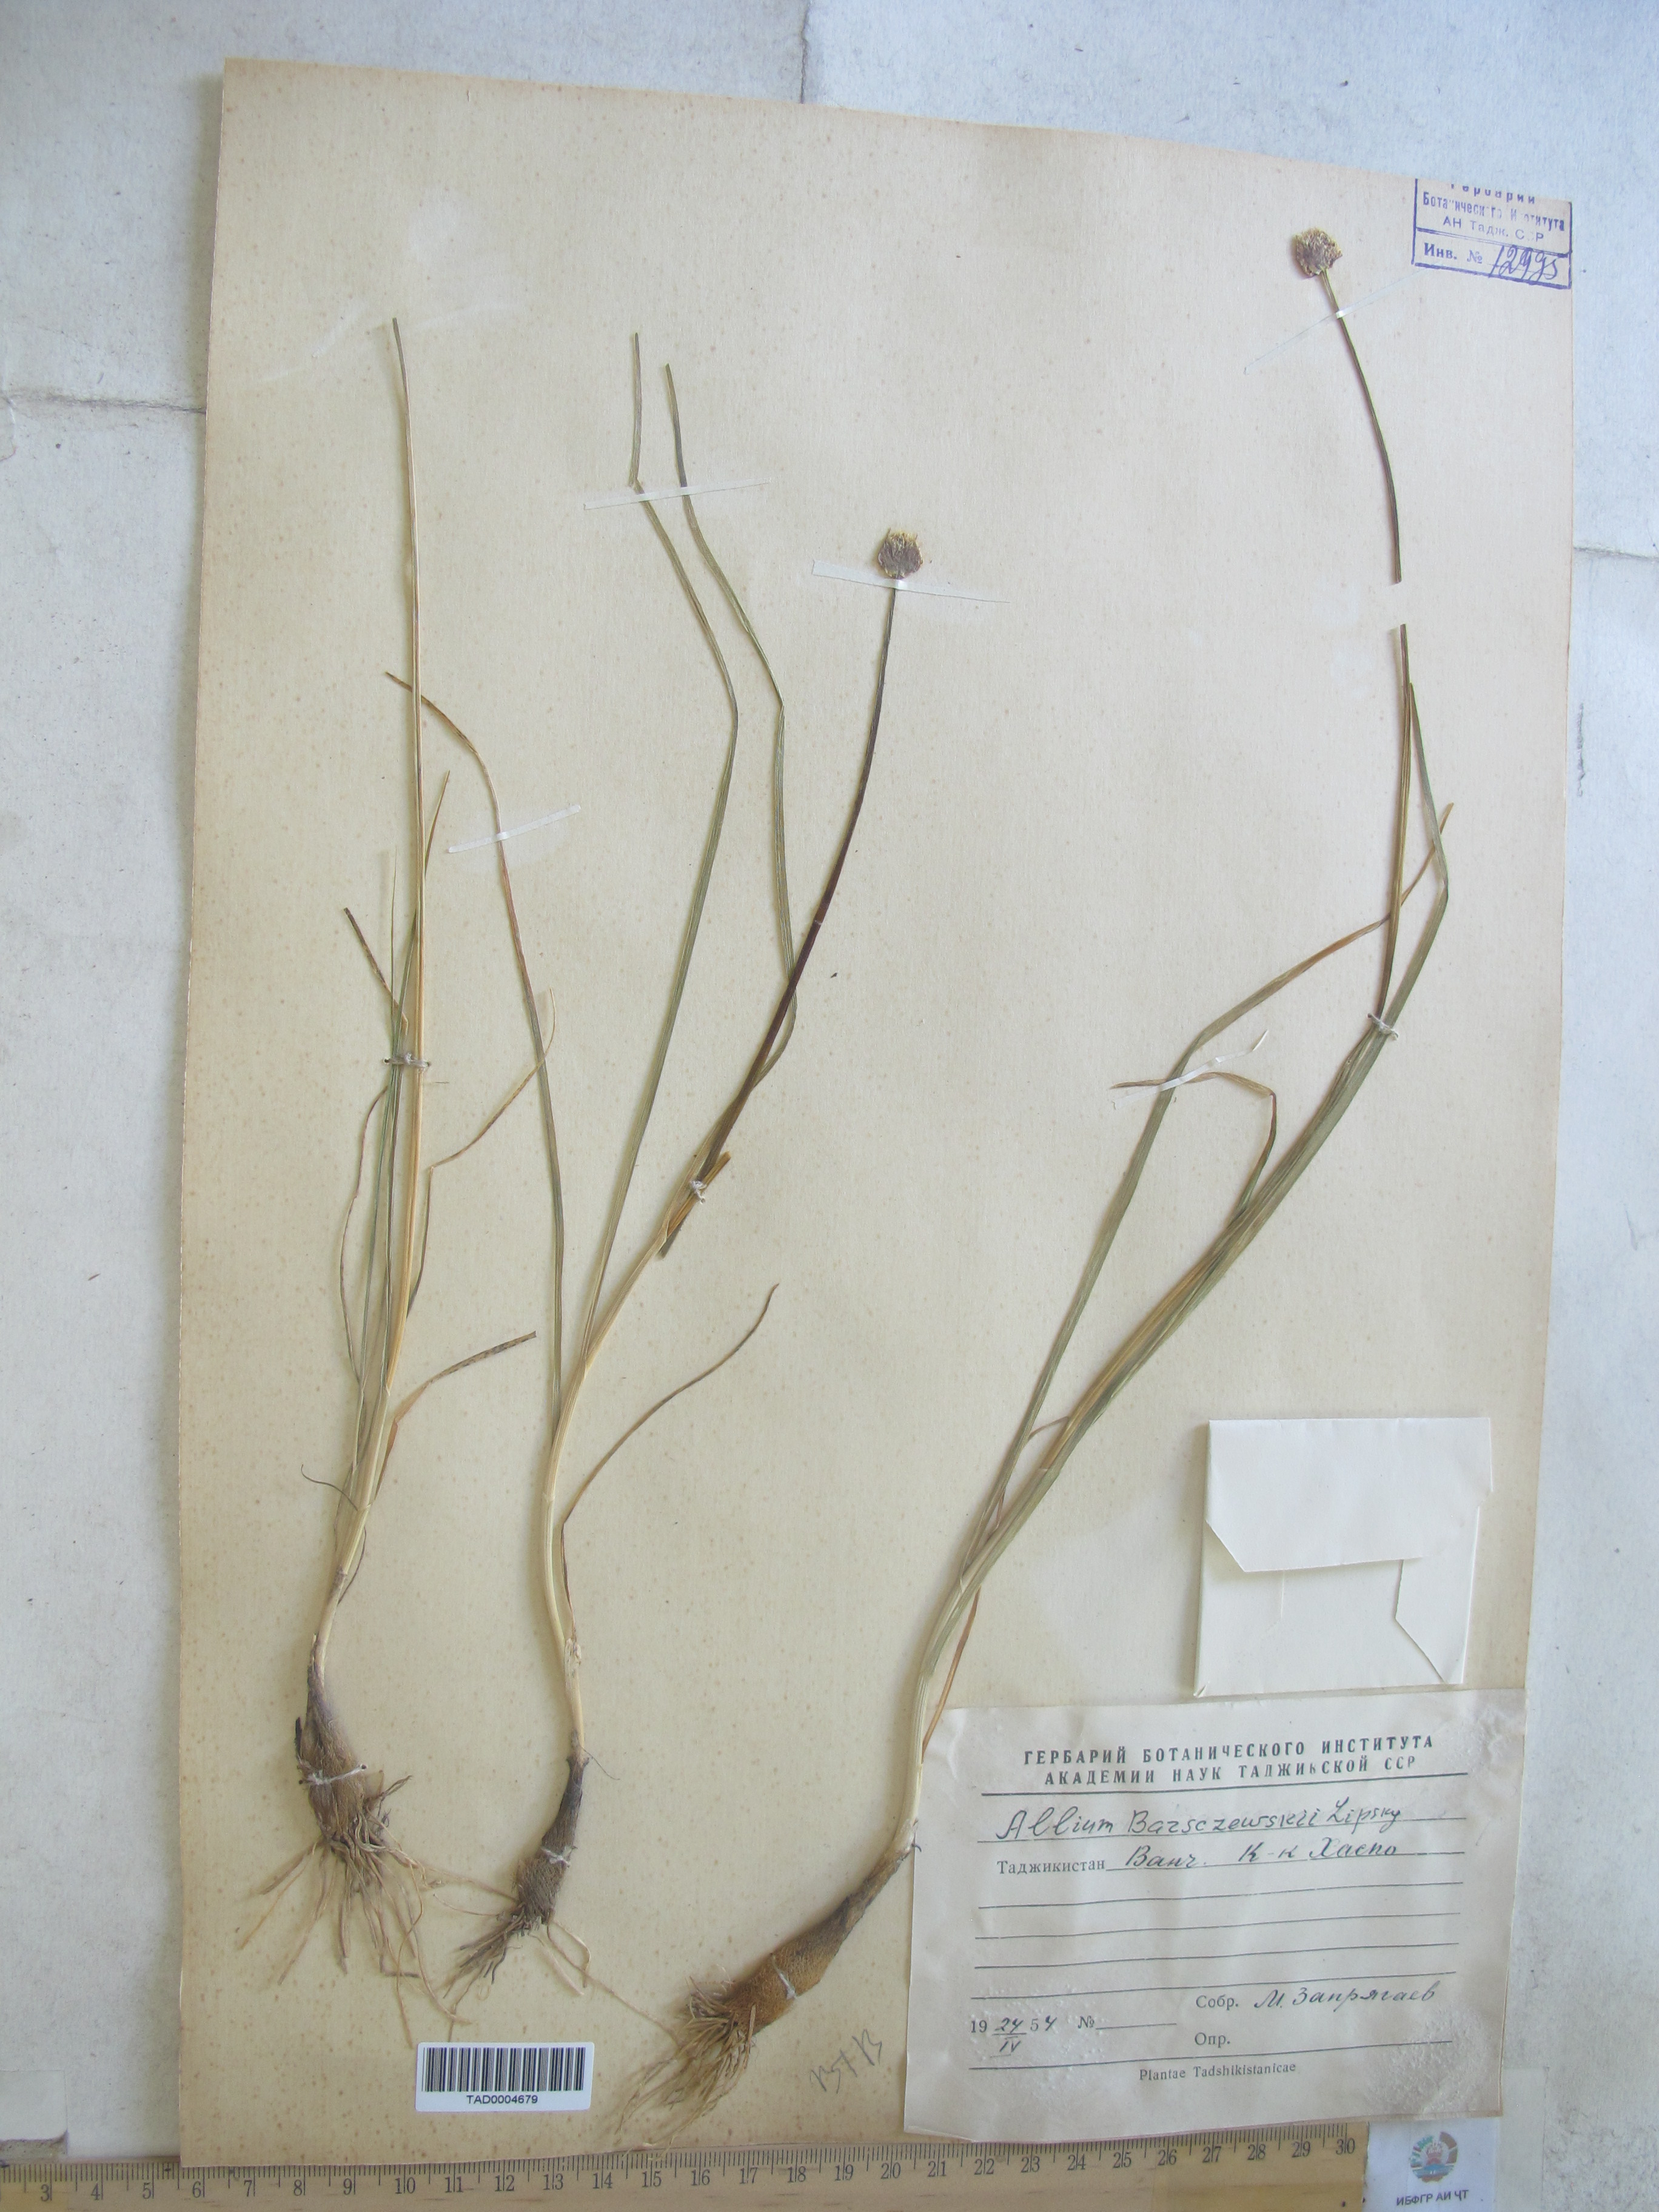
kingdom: Plantae
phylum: Tracheophyta
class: Liliopsida
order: Asparagales
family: Amaryllidaceae
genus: Allium
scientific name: Allium barsczewskii
